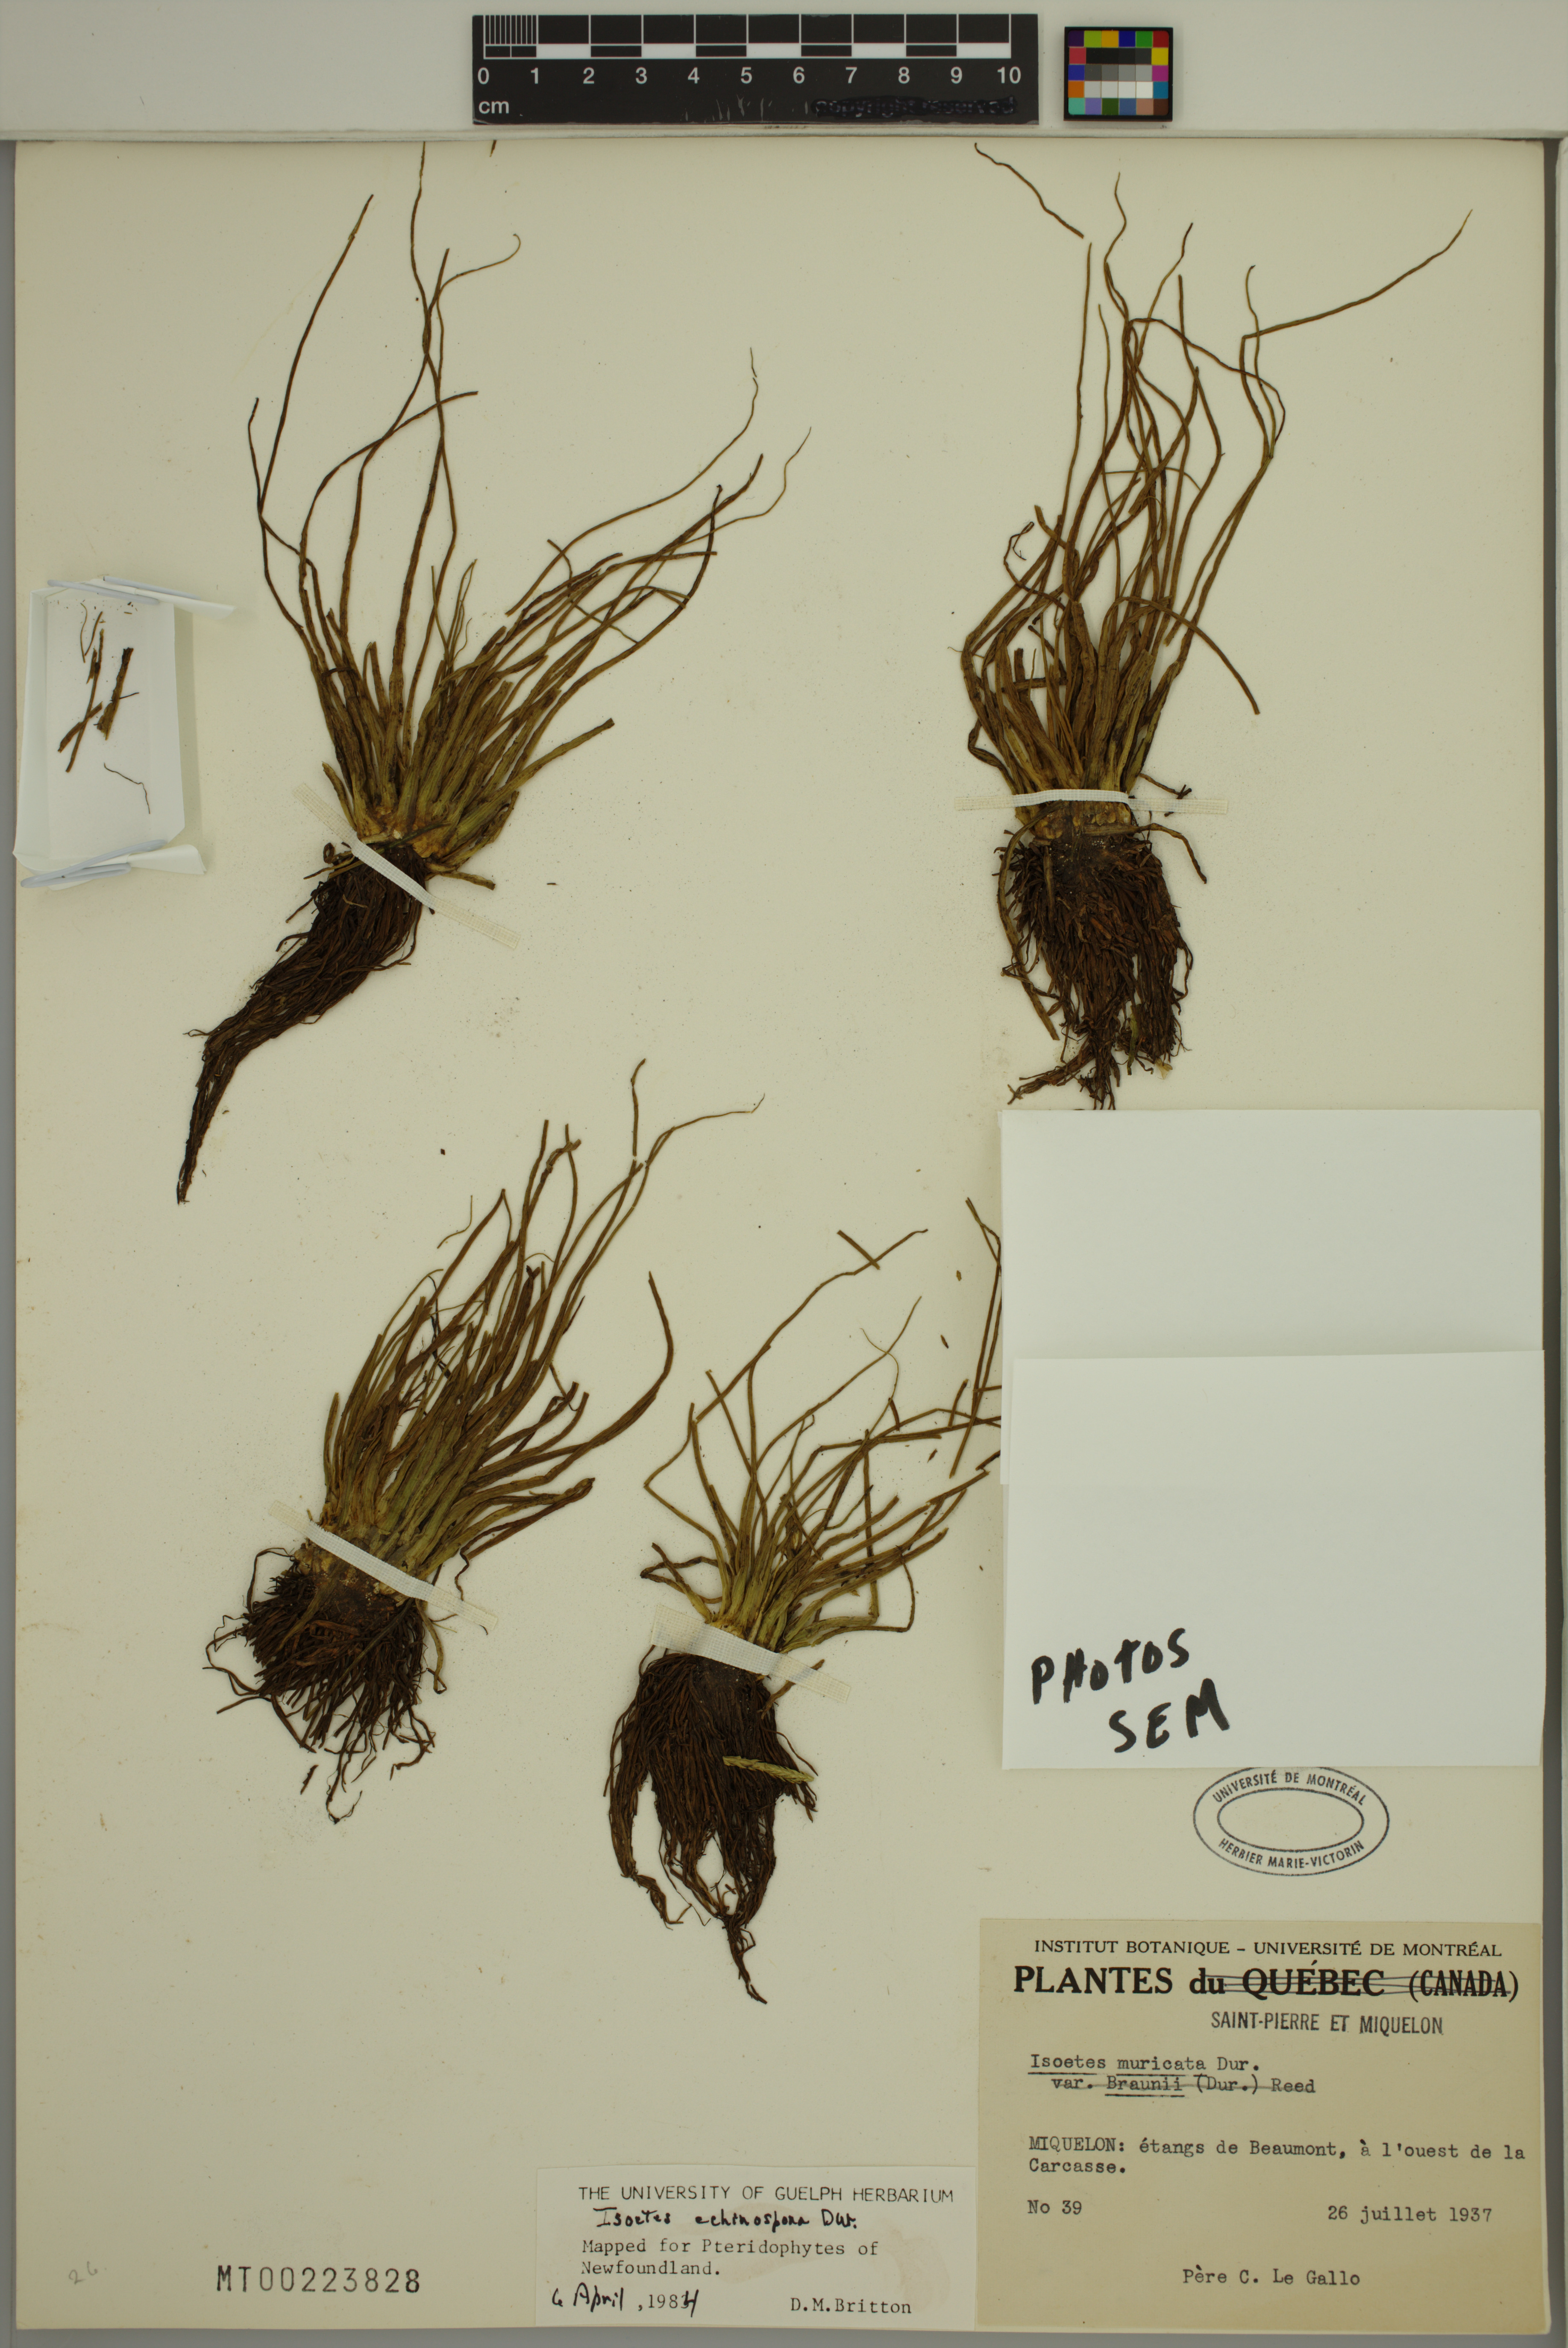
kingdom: Plantae
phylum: Tracheophyta
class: Lycopodiopsida
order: Isoetales
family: Isoetaceae
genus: Isoetes
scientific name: Isoetes echinospora
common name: Spring quillwort
